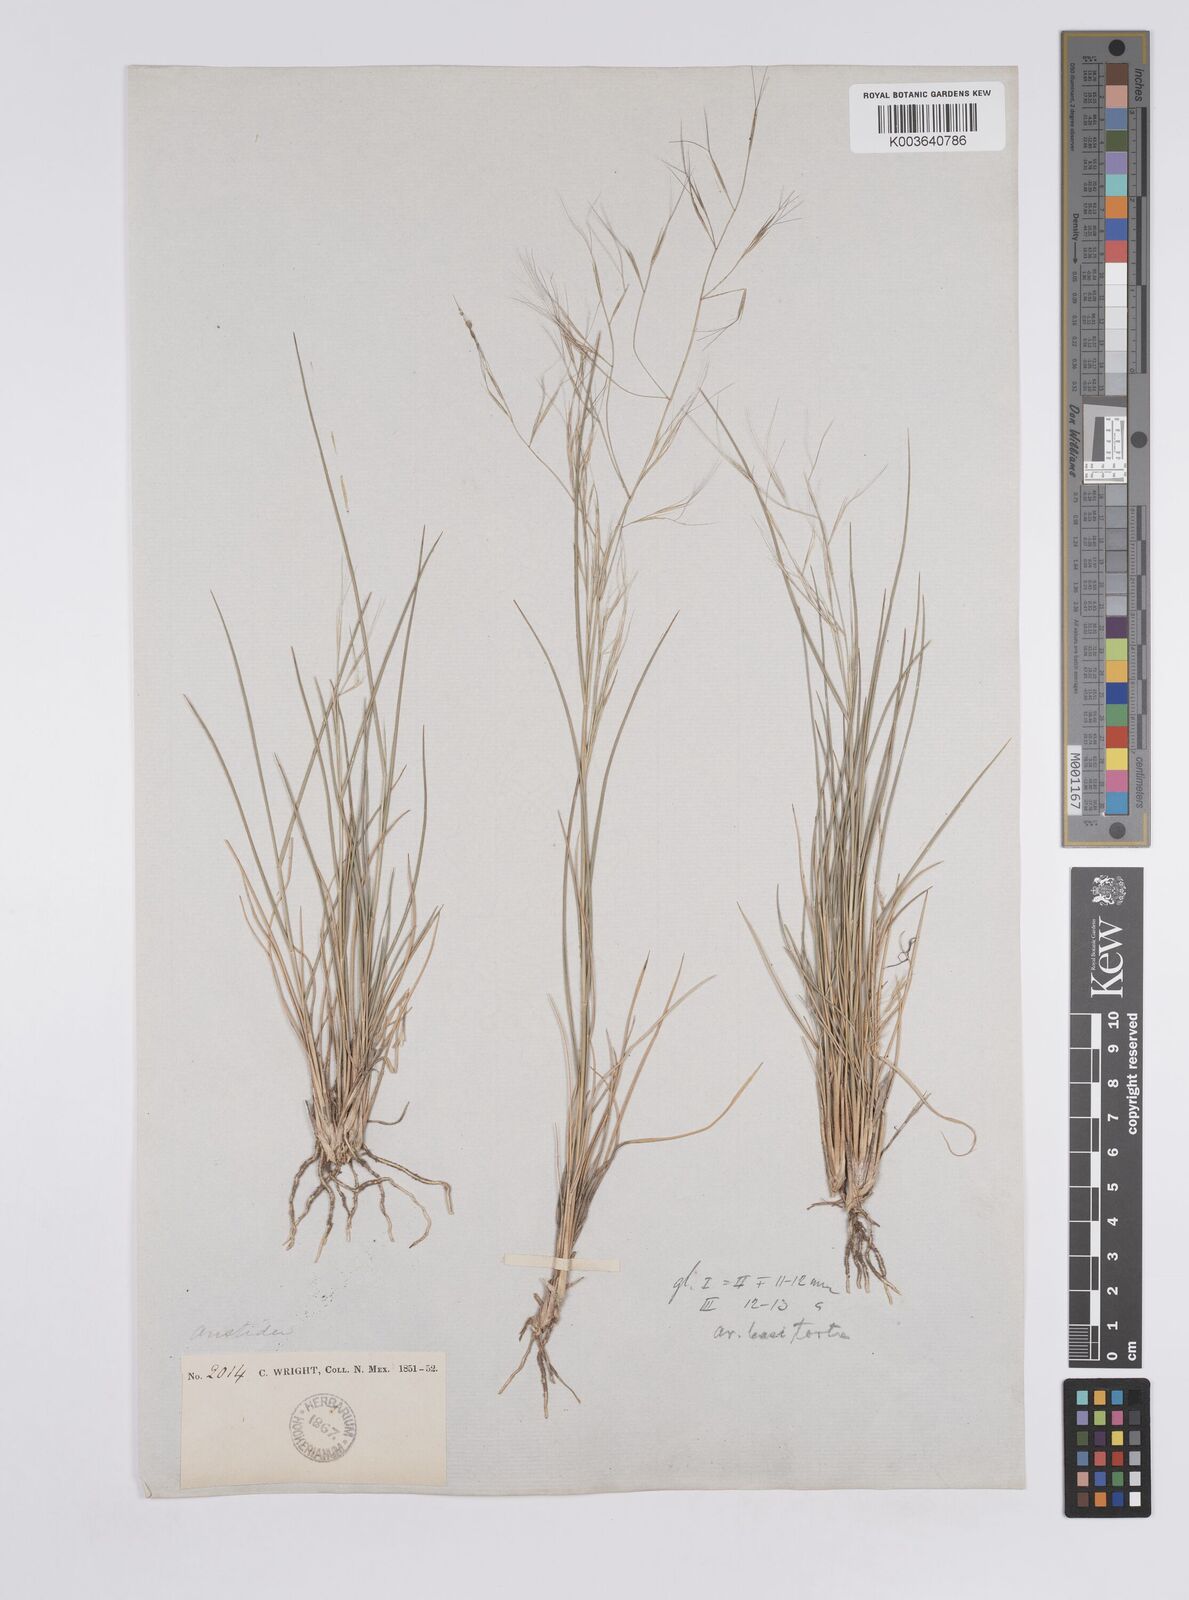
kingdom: Plantae
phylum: Tracheophyta
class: Liliopsida
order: Poales
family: Poaceae
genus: Aristida
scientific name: Aristida havardii
